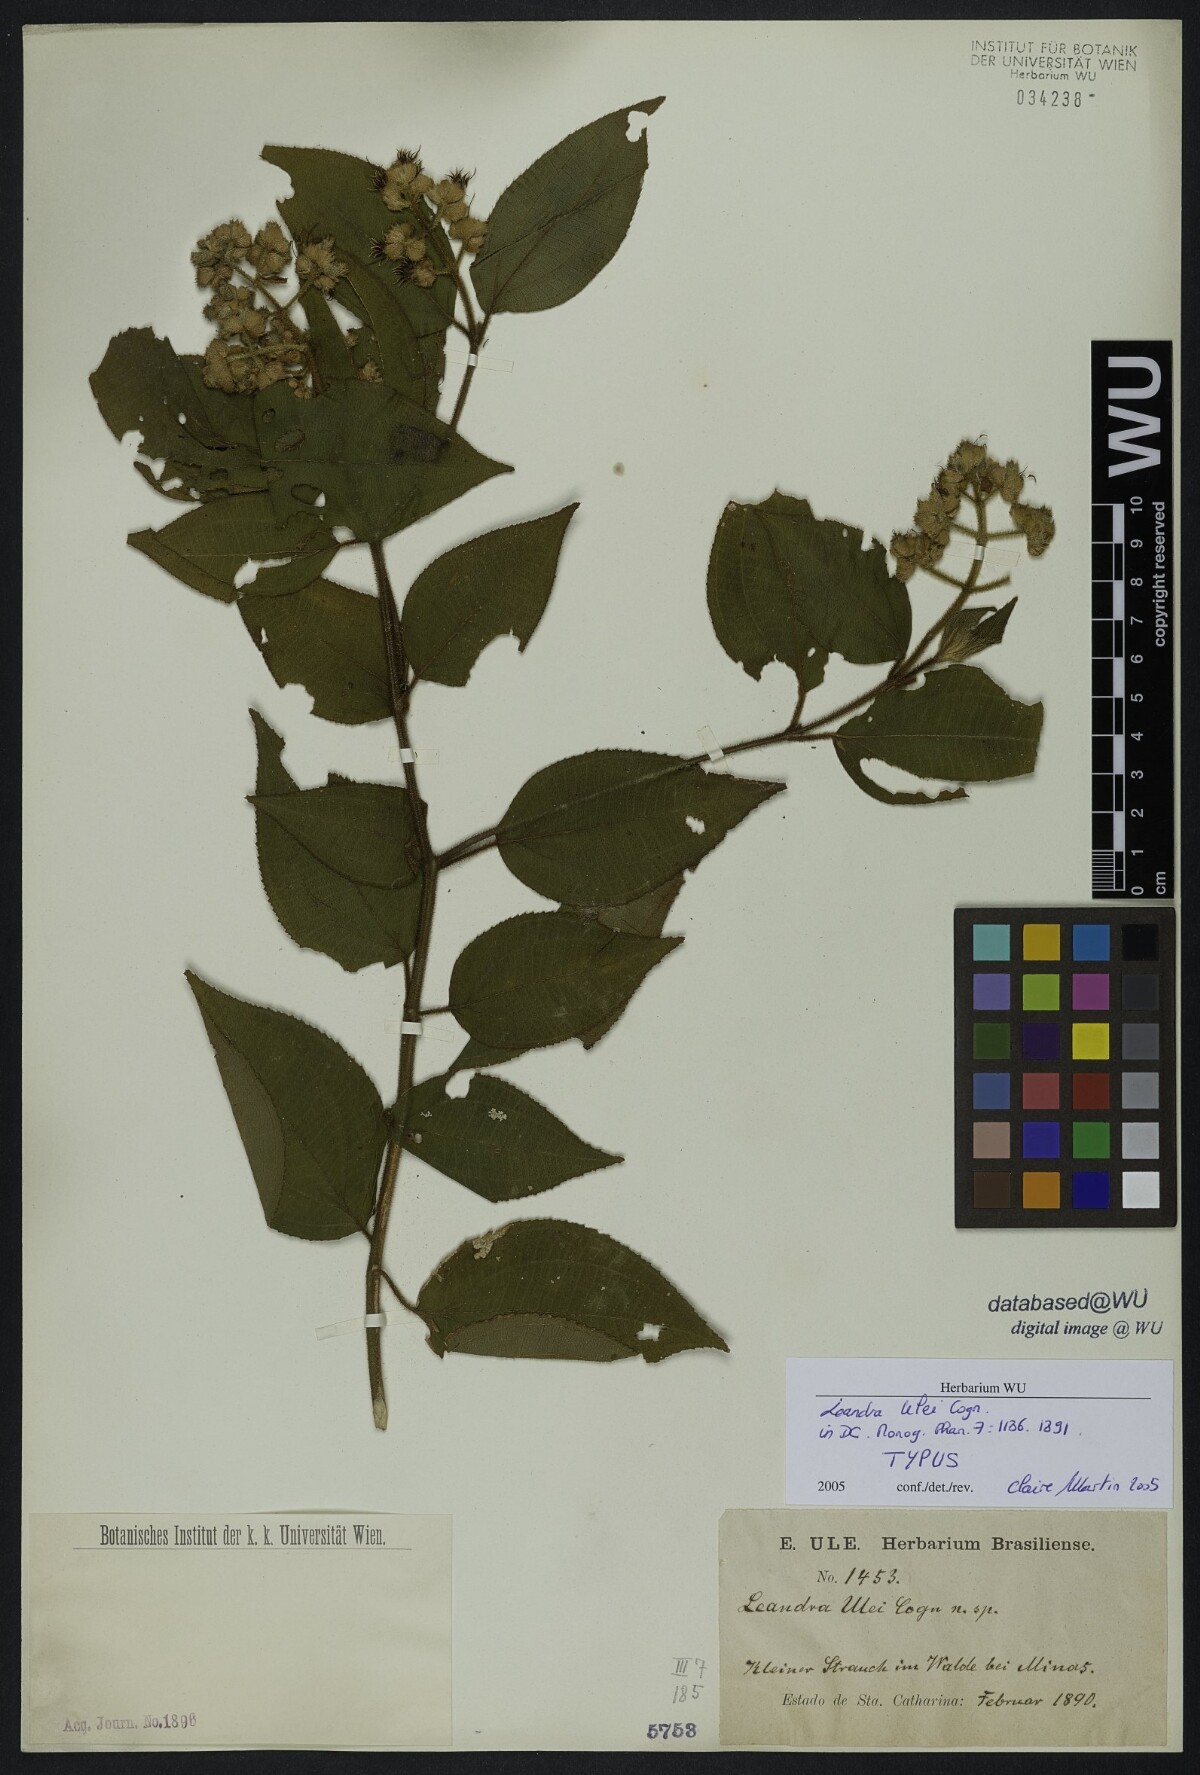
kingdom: Plantae
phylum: Tracheophyta
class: Magnoliopsida
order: Myrtales
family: Melastomataceae
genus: Miconia
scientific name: Miconia ulei
